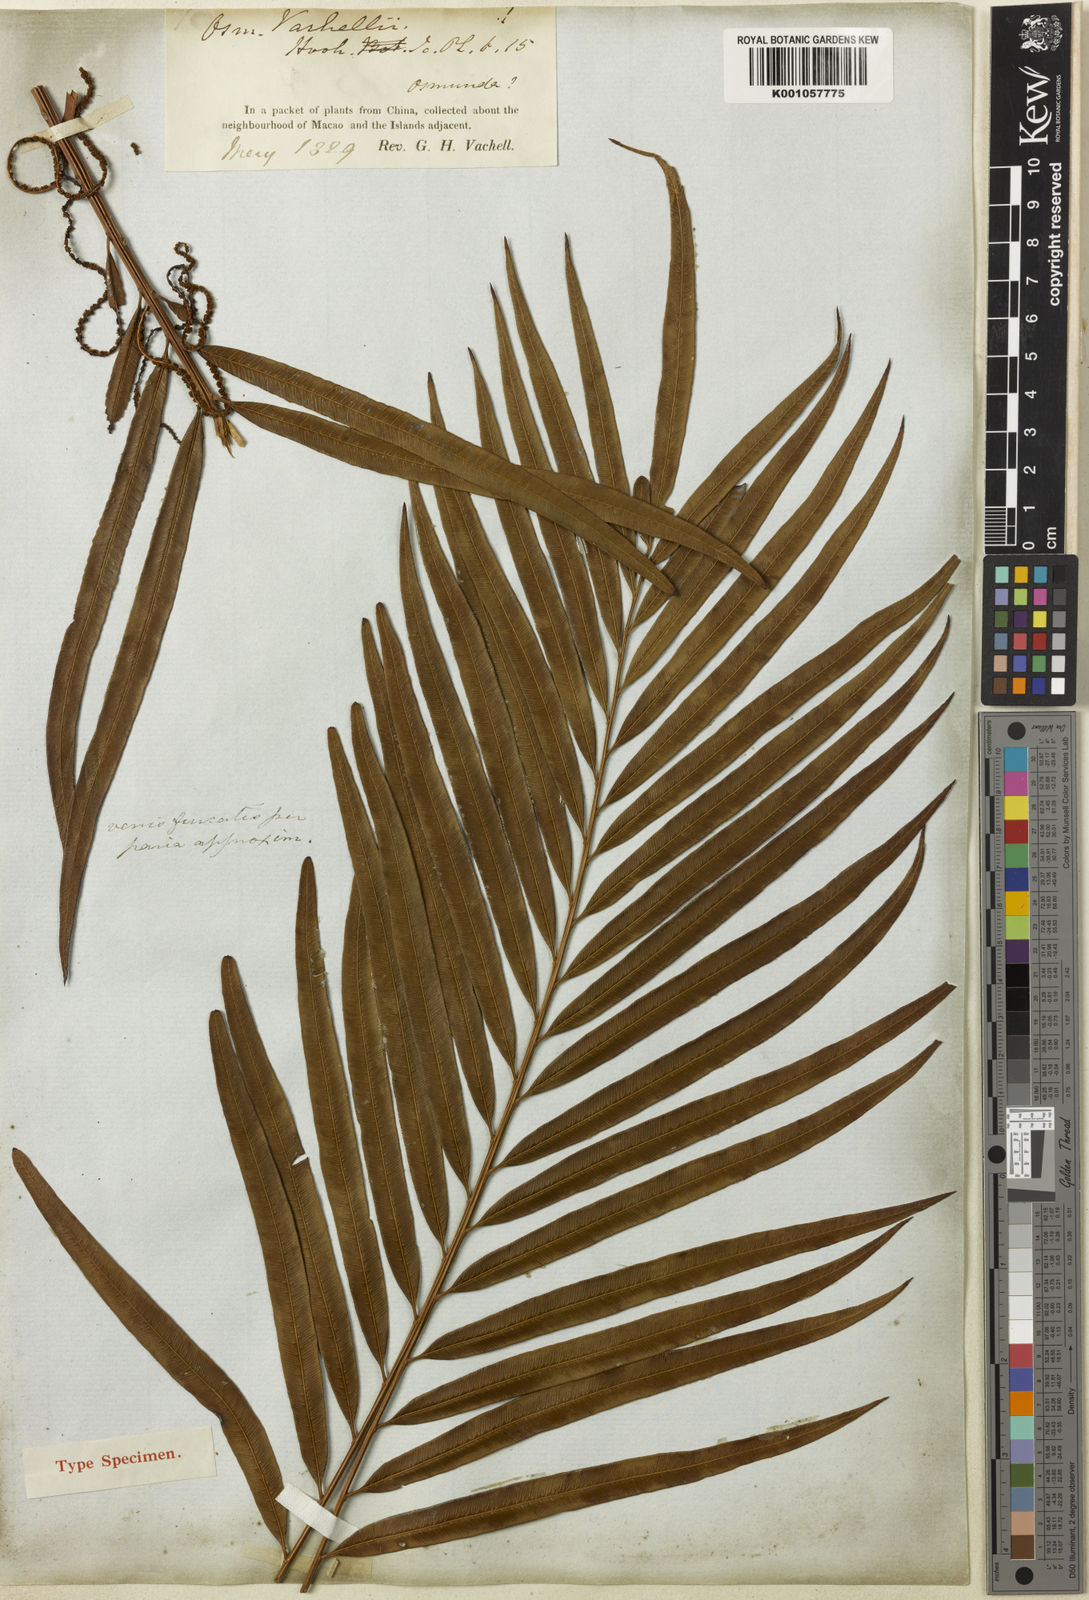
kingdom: Plantae
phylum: Tracheophyta
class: Polypodiopsida
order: Osmundales
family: Osmundaceae
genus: Plenasium
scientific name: Plenasium vachellii
